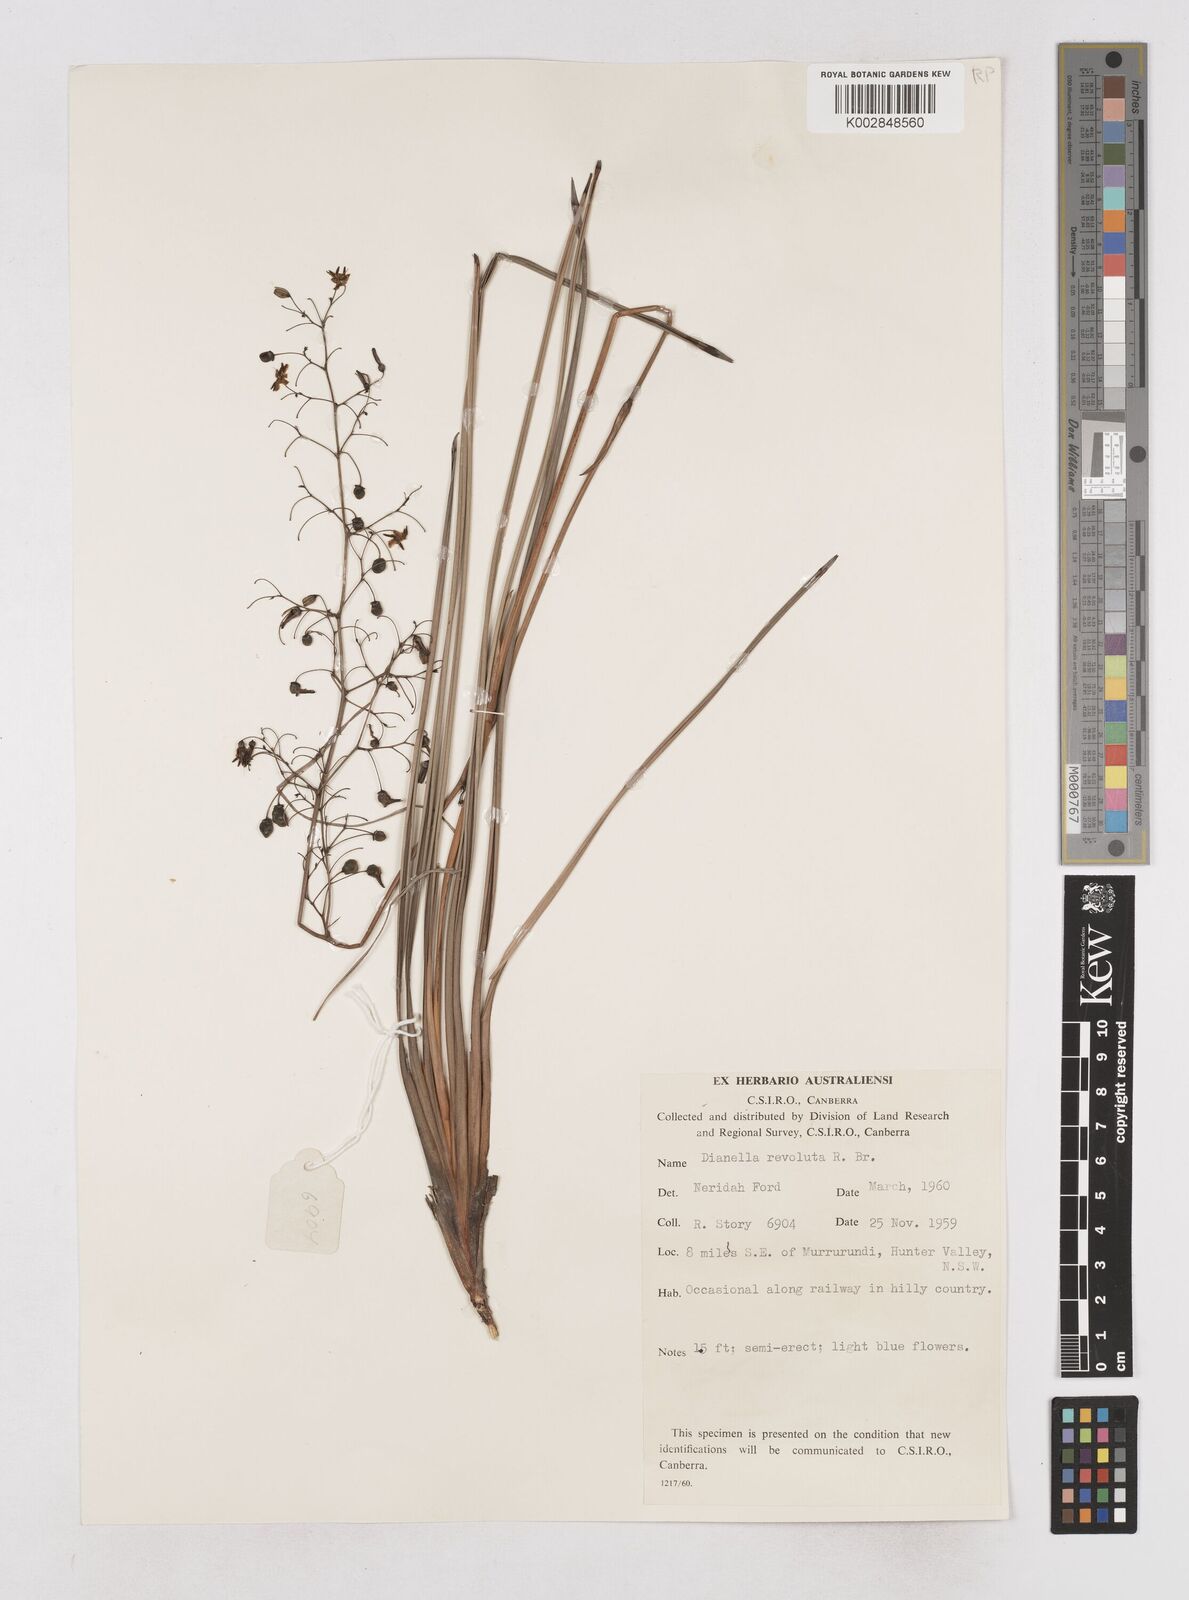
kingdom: Plantae
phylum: Tracheophyta
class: Liliopsida
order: Asparagales
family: Asphodelaceae
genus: Dianella
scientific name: Dianella revoluta
